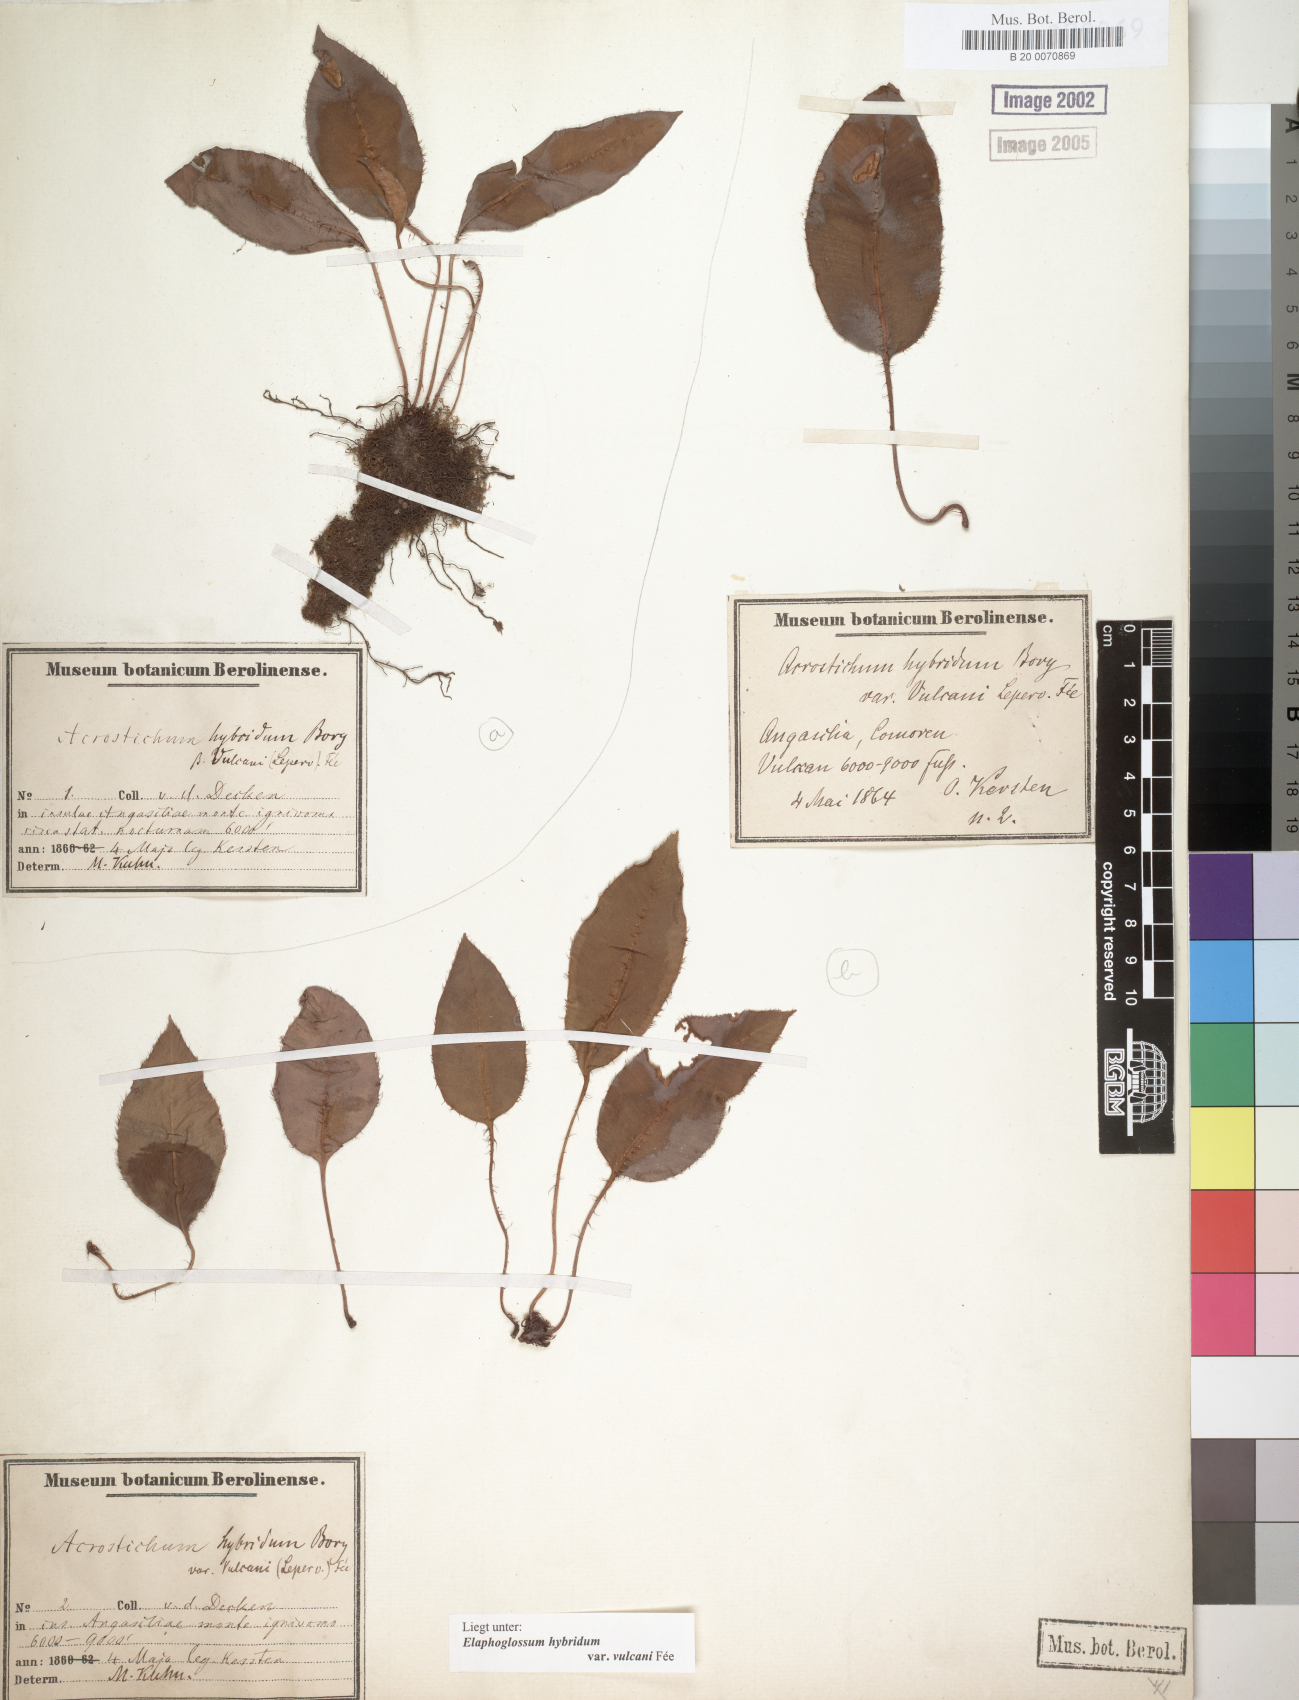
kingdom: Plantae
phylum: Tracheophyta
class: Polypodiopsida
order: Polypodiales
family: Dryopteridaceae
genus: Elaphoglossum
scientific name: Elaphoglossum hybridum
